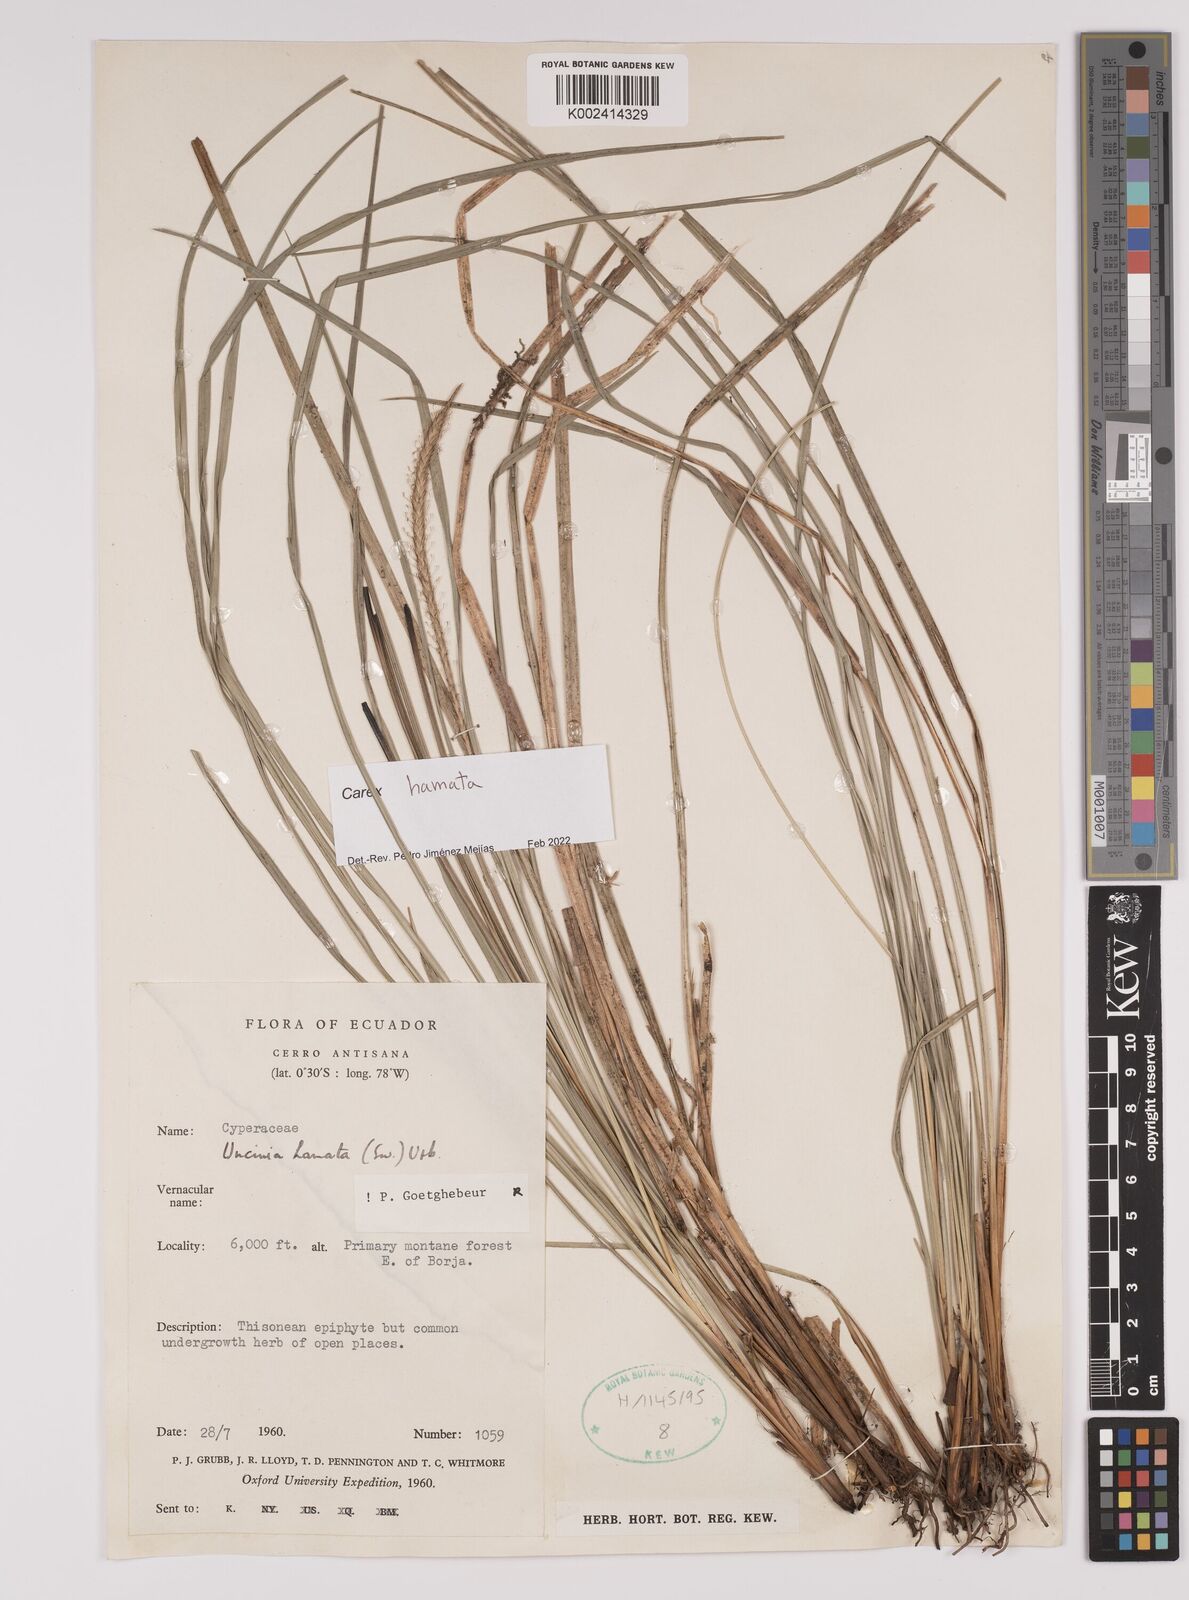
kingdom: Plantae
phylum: Tracheophyta
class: Liliopsida
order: Poales
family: Cyperaceae
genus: Carex
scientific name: Carex hamata
